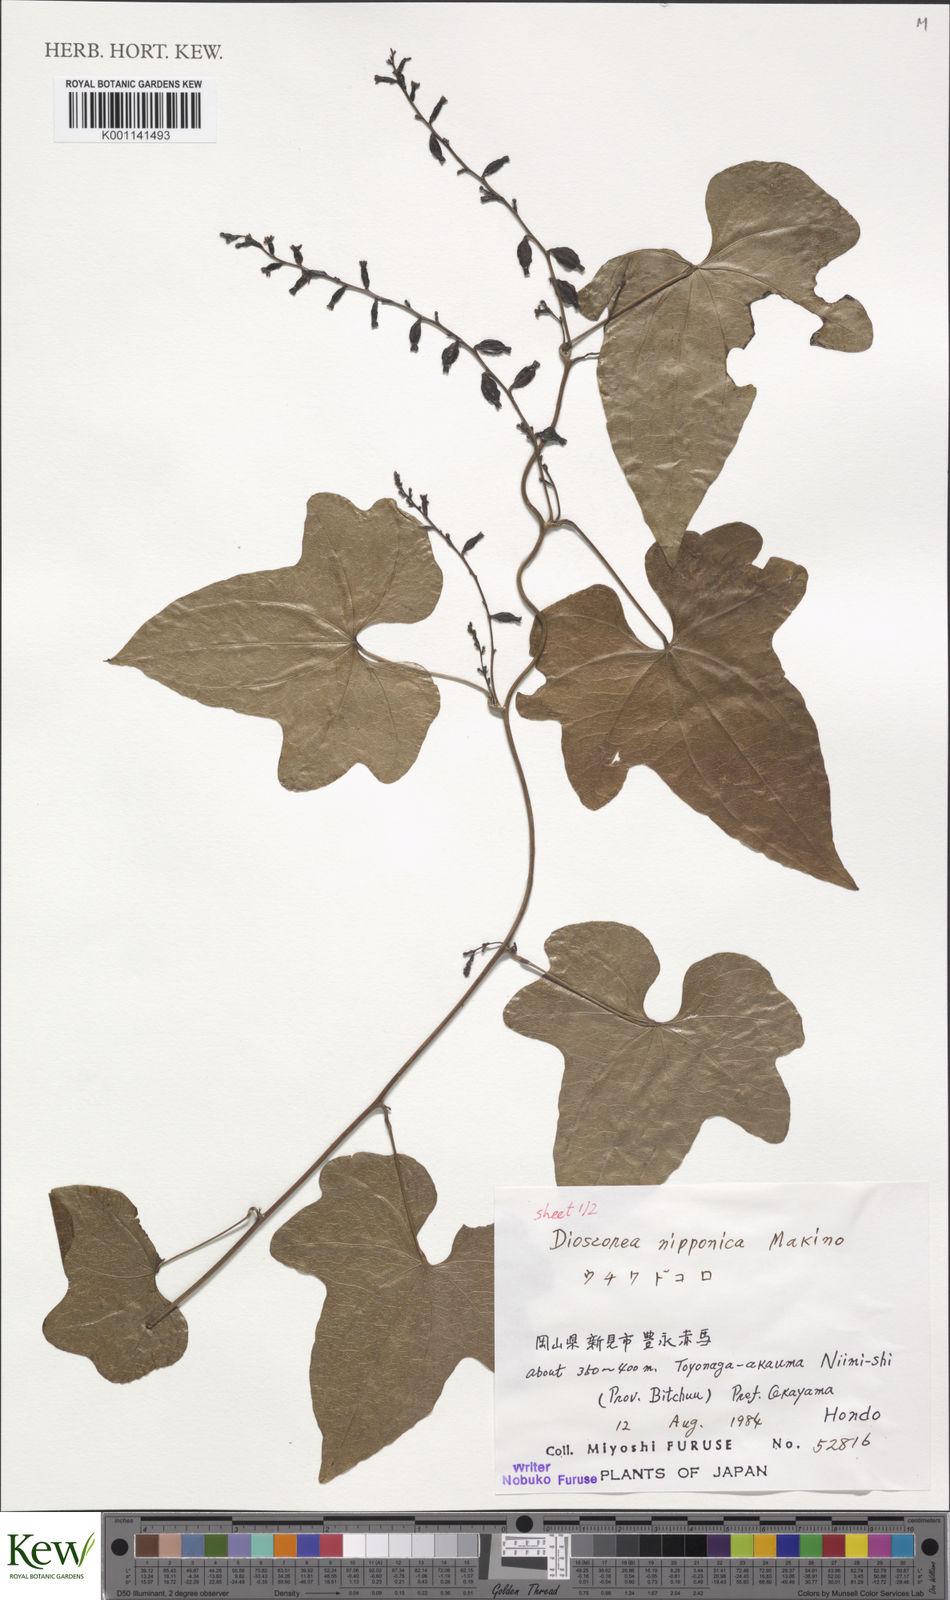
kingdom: Plantae
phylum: Tracheophyta
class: Liliopsida
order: Dioscoreales
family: Dioscoreaceae
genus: Dioscorea
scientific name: Dioscorea nipponica
